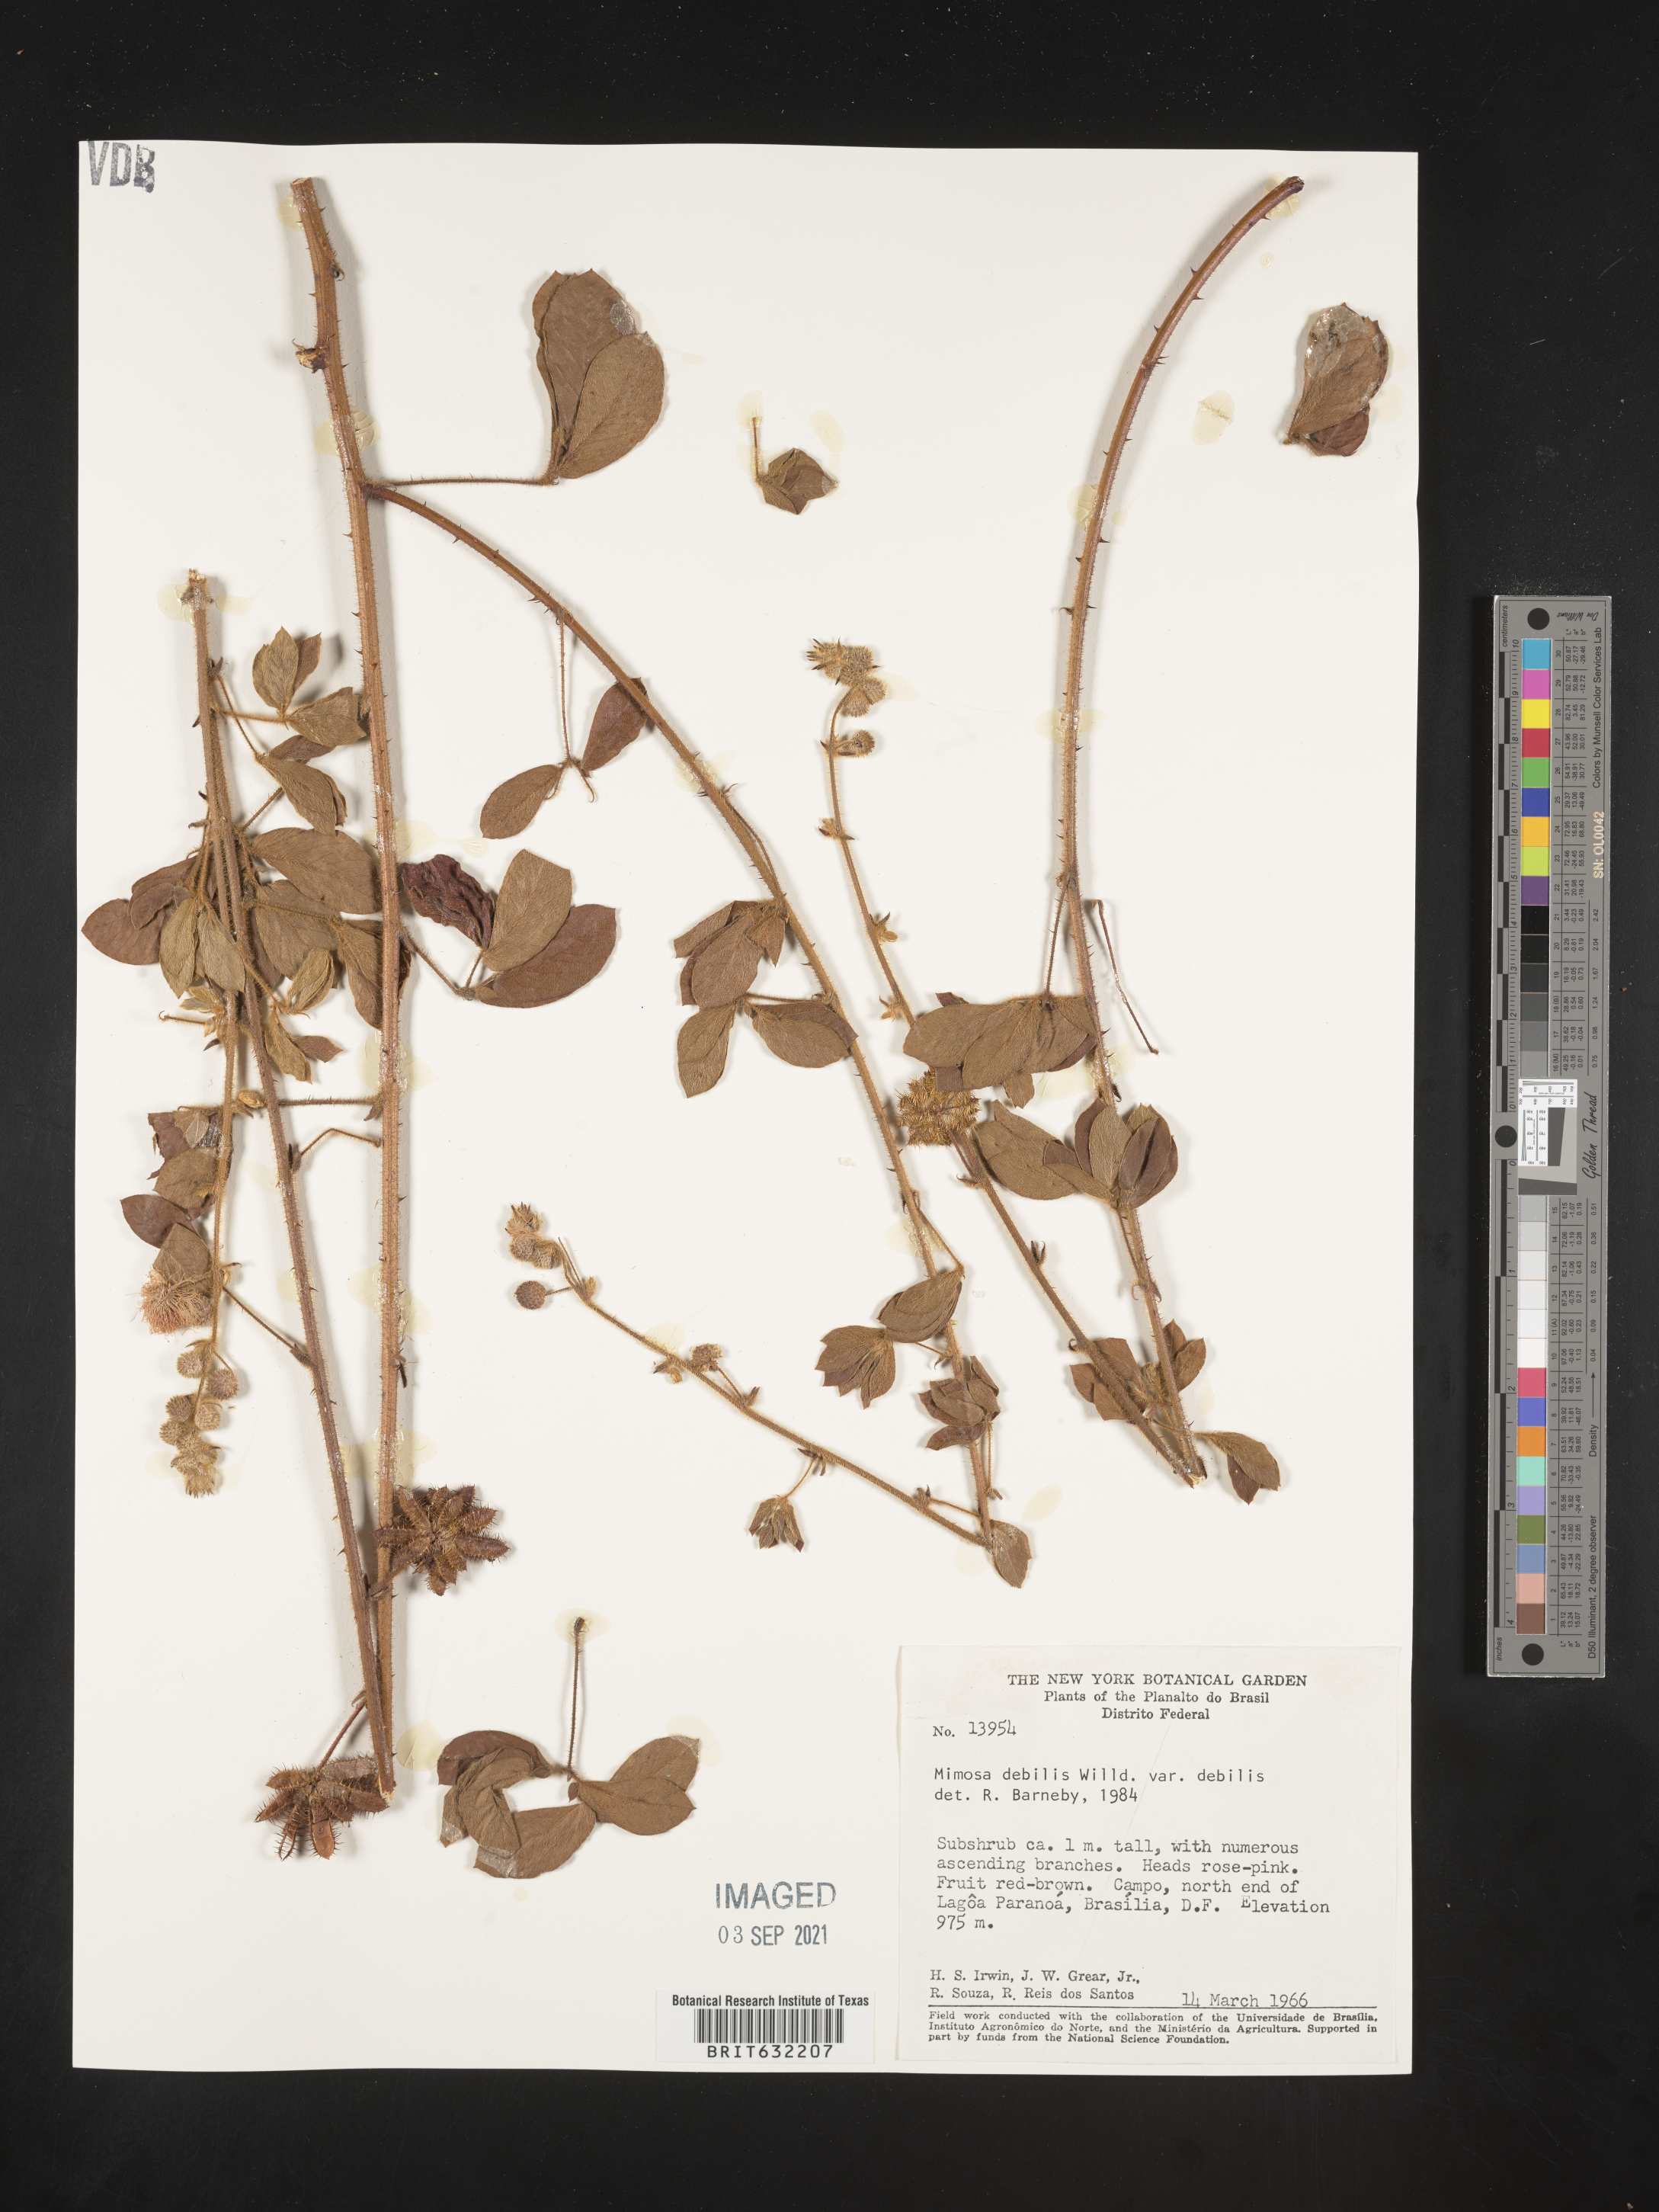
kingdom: Plantae
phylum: Tracheophyta
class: Magnoliopsida
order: Fabales
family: Fabaceae
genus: Mimosa
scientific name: Mimosa
